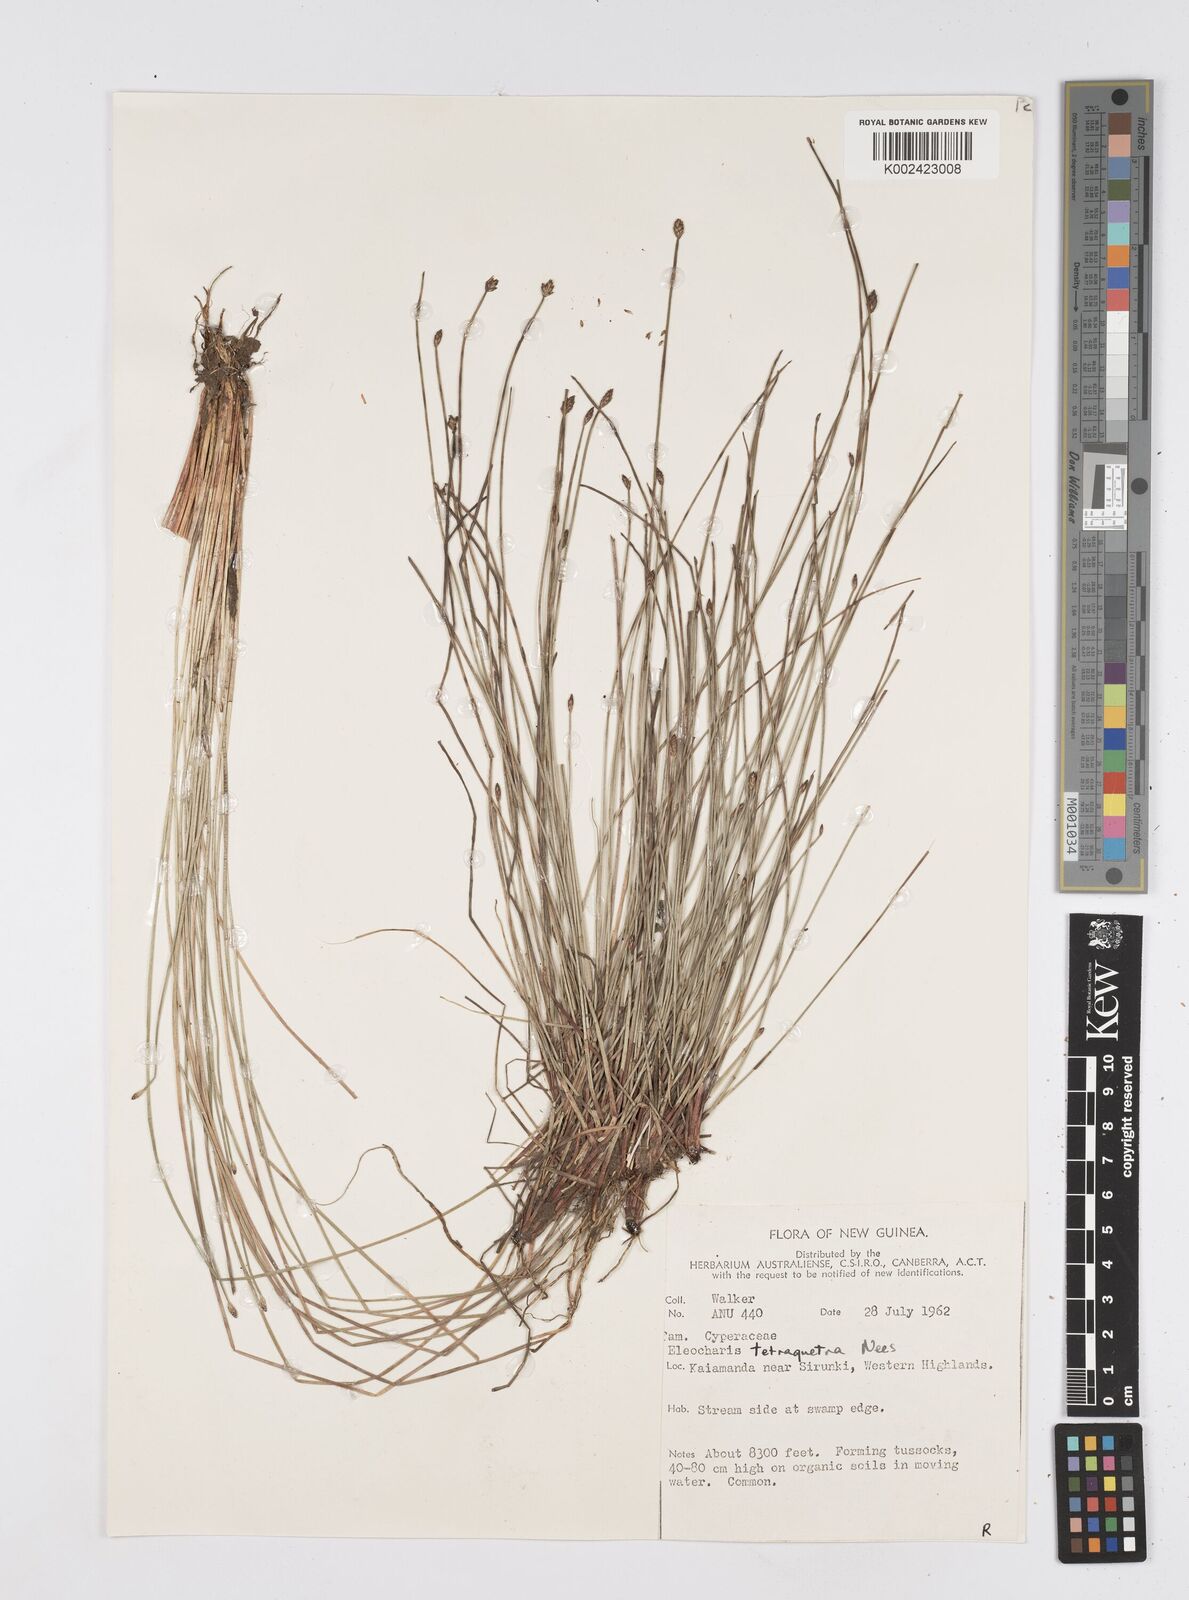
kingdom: Plantae
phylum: Tracheophyta
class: Liliopsida
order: Poales
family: Cyperaceae
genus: Eleocharis
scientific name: Eleocharis tetraquetra
